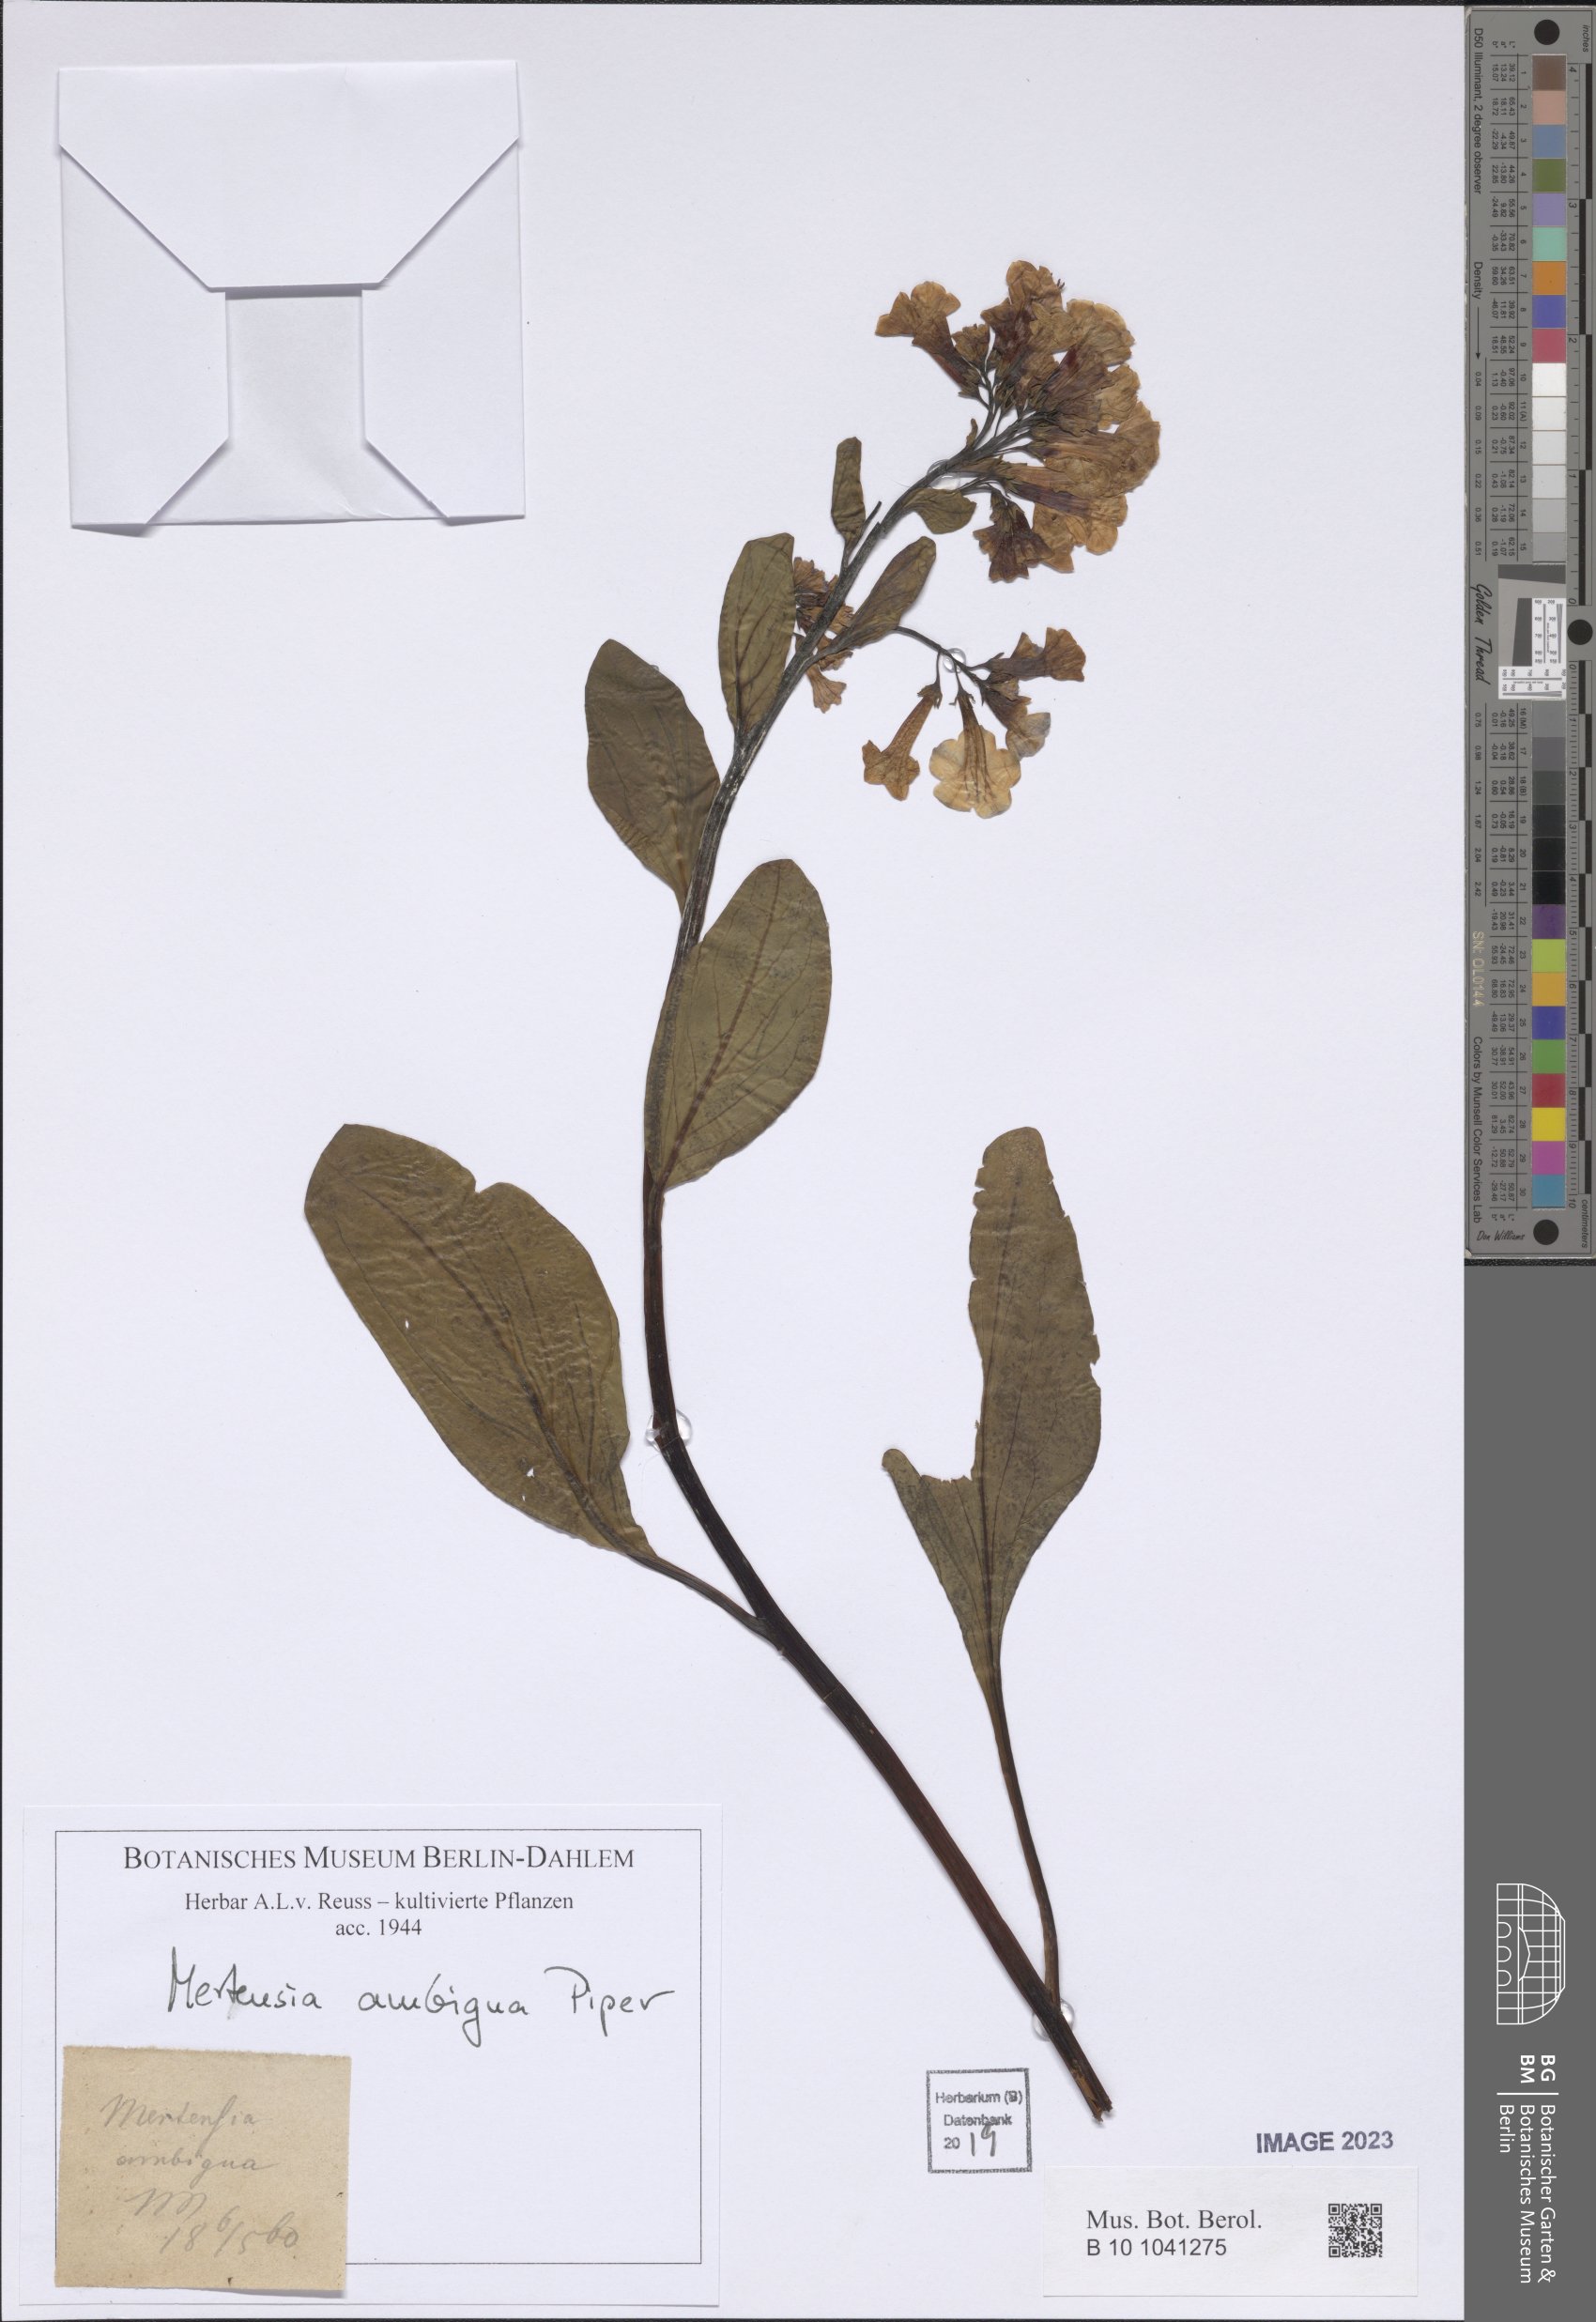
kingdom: Plantae
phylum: Tracheophyta
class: Magnoliopsida
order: Boraginales
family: Boraginaceae
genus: Mertensia
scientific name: Mertensia umbratilis
